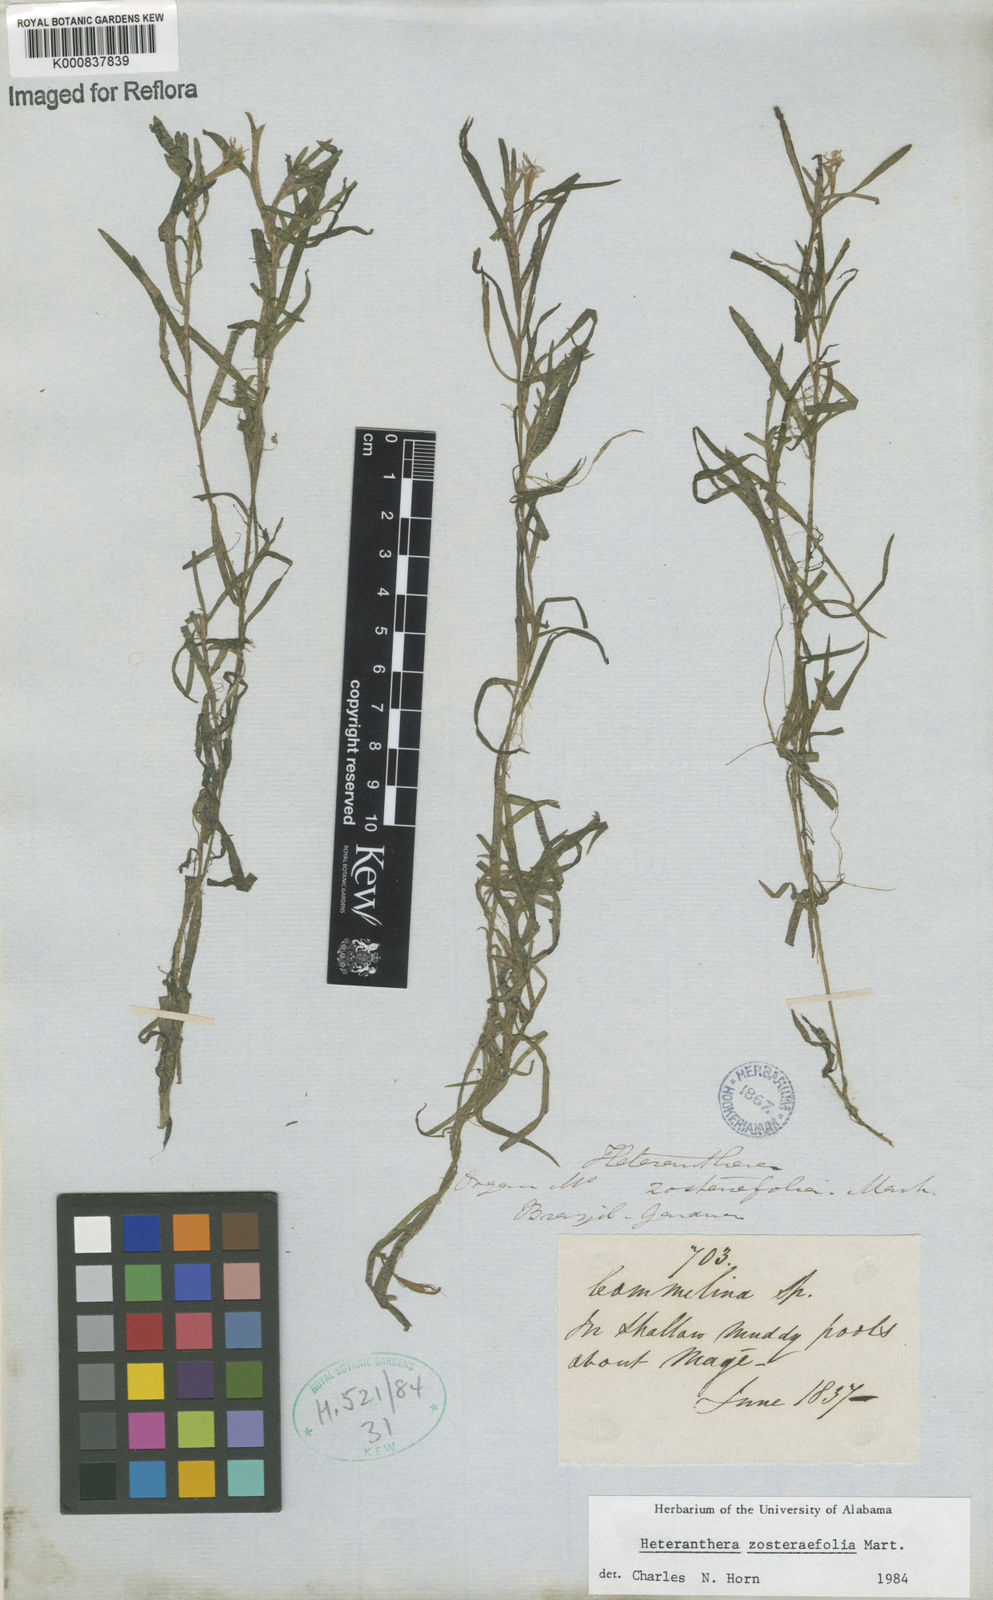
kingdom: Plantae
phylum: Tracheophyta
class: Liliopsida
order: Commelinales
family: Pontederiaceae
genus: Heteranthera
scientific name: Heteranthera zosterifolia
